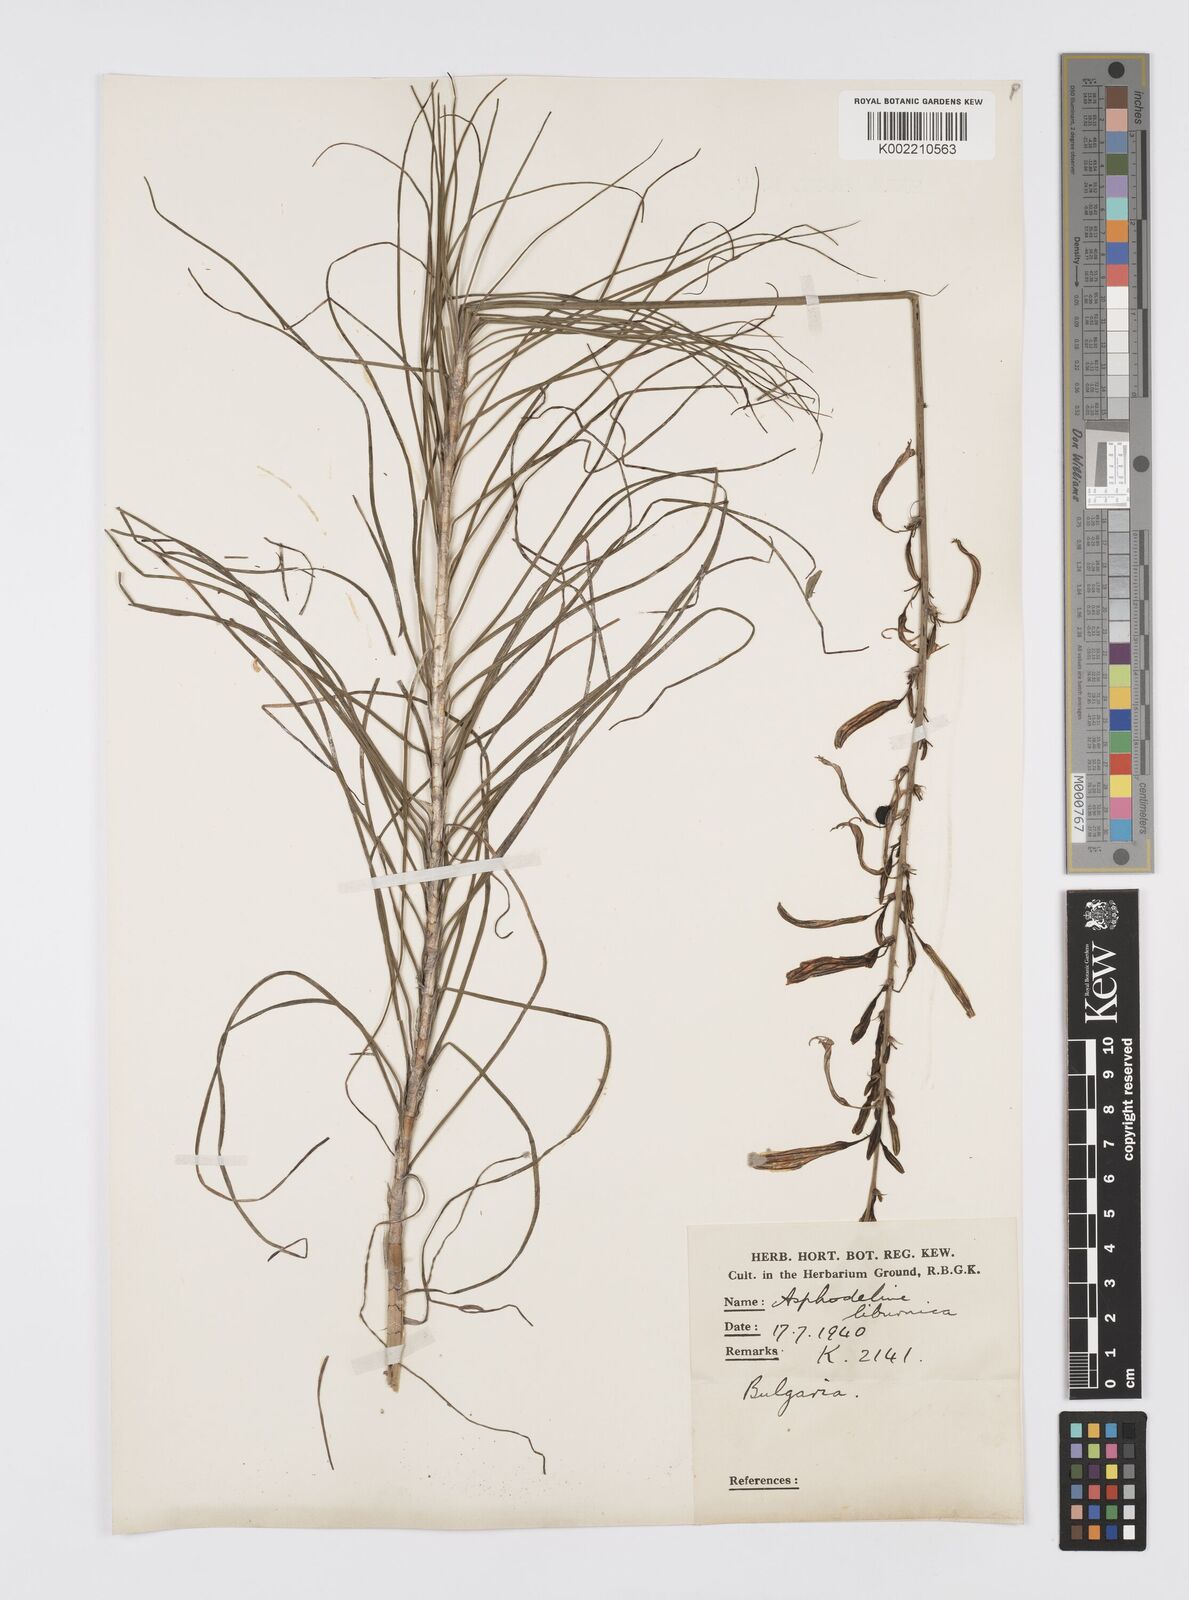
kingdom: Plantae
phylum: Tracheophyta
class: Liliopsida
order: Asparagales
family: Asphodelaceae
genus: Asphodeline
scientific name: Asphodeline liburnica
